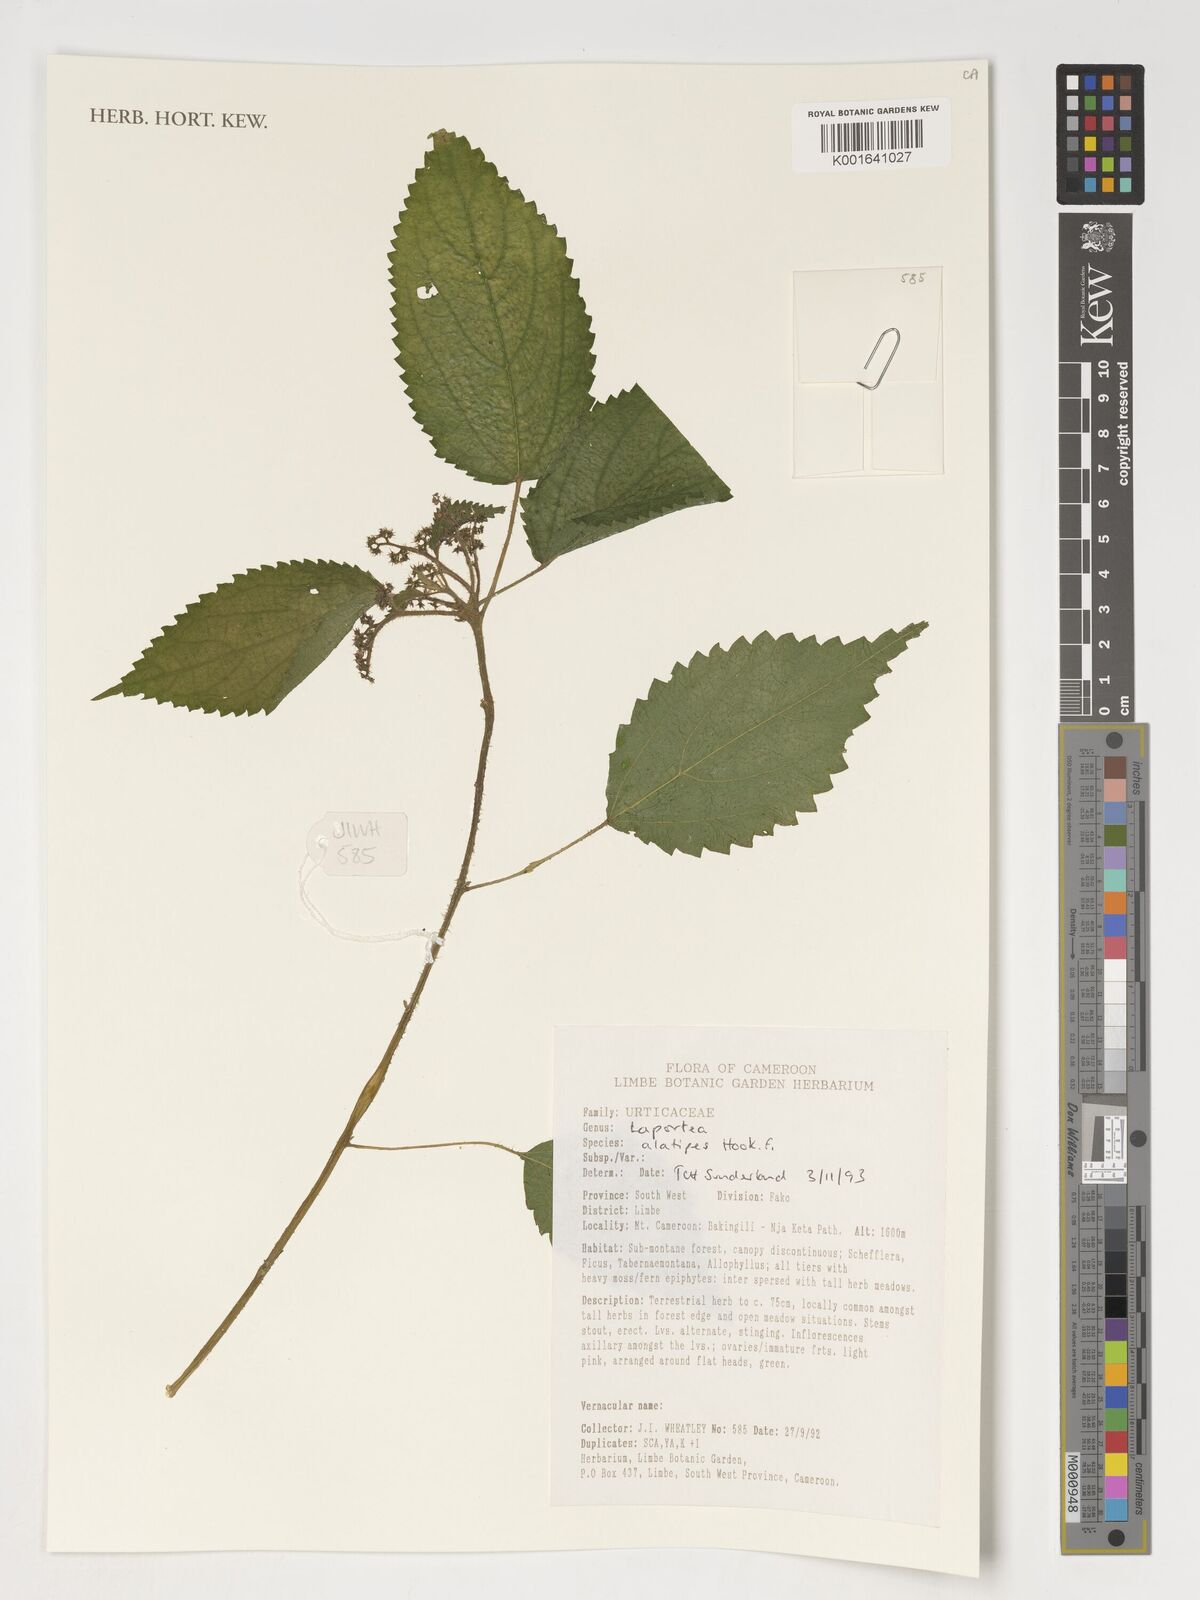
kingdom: Plantae
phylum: Tracheophyta
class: Magnoliopsida
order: Rosales
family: Urticaceae
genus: Laportea
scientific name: Laportea alatipes
